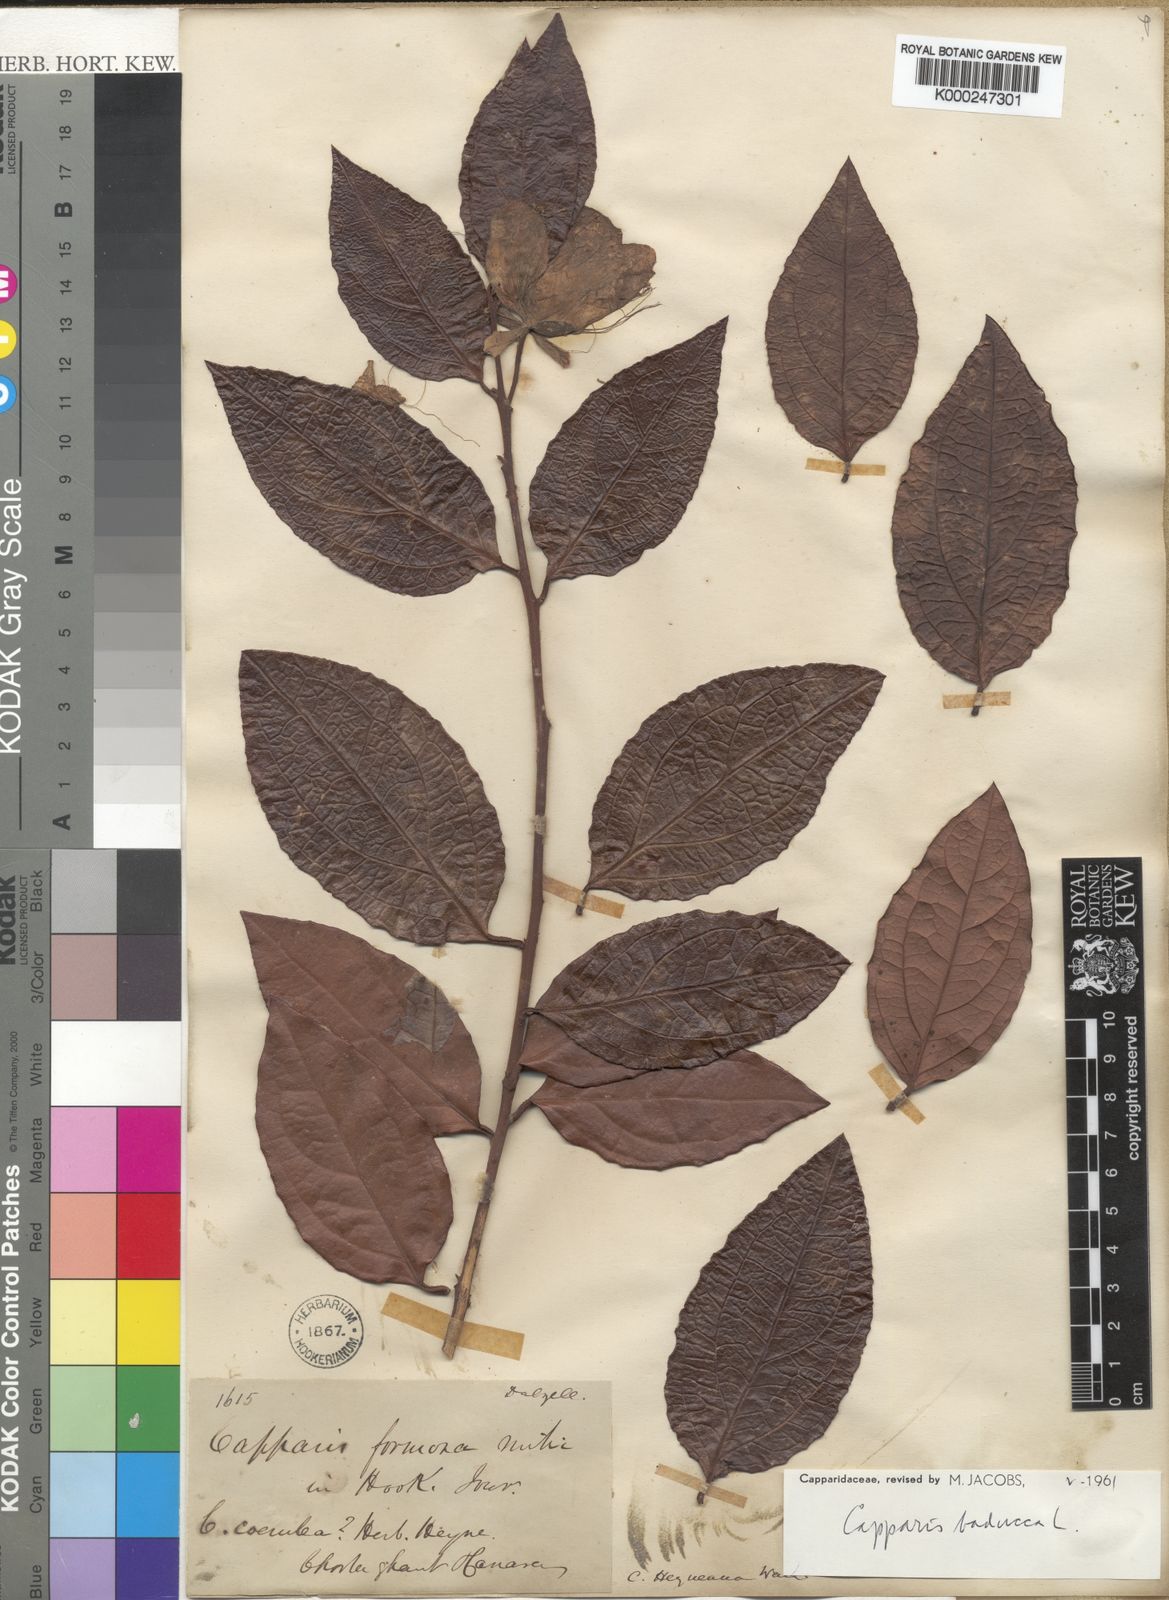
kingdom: Plantae
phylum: Tracheophyta
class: Magnoliopsida
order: Brassicales
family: Capparaceae
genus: Capparis
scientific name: Capparis rheedei
